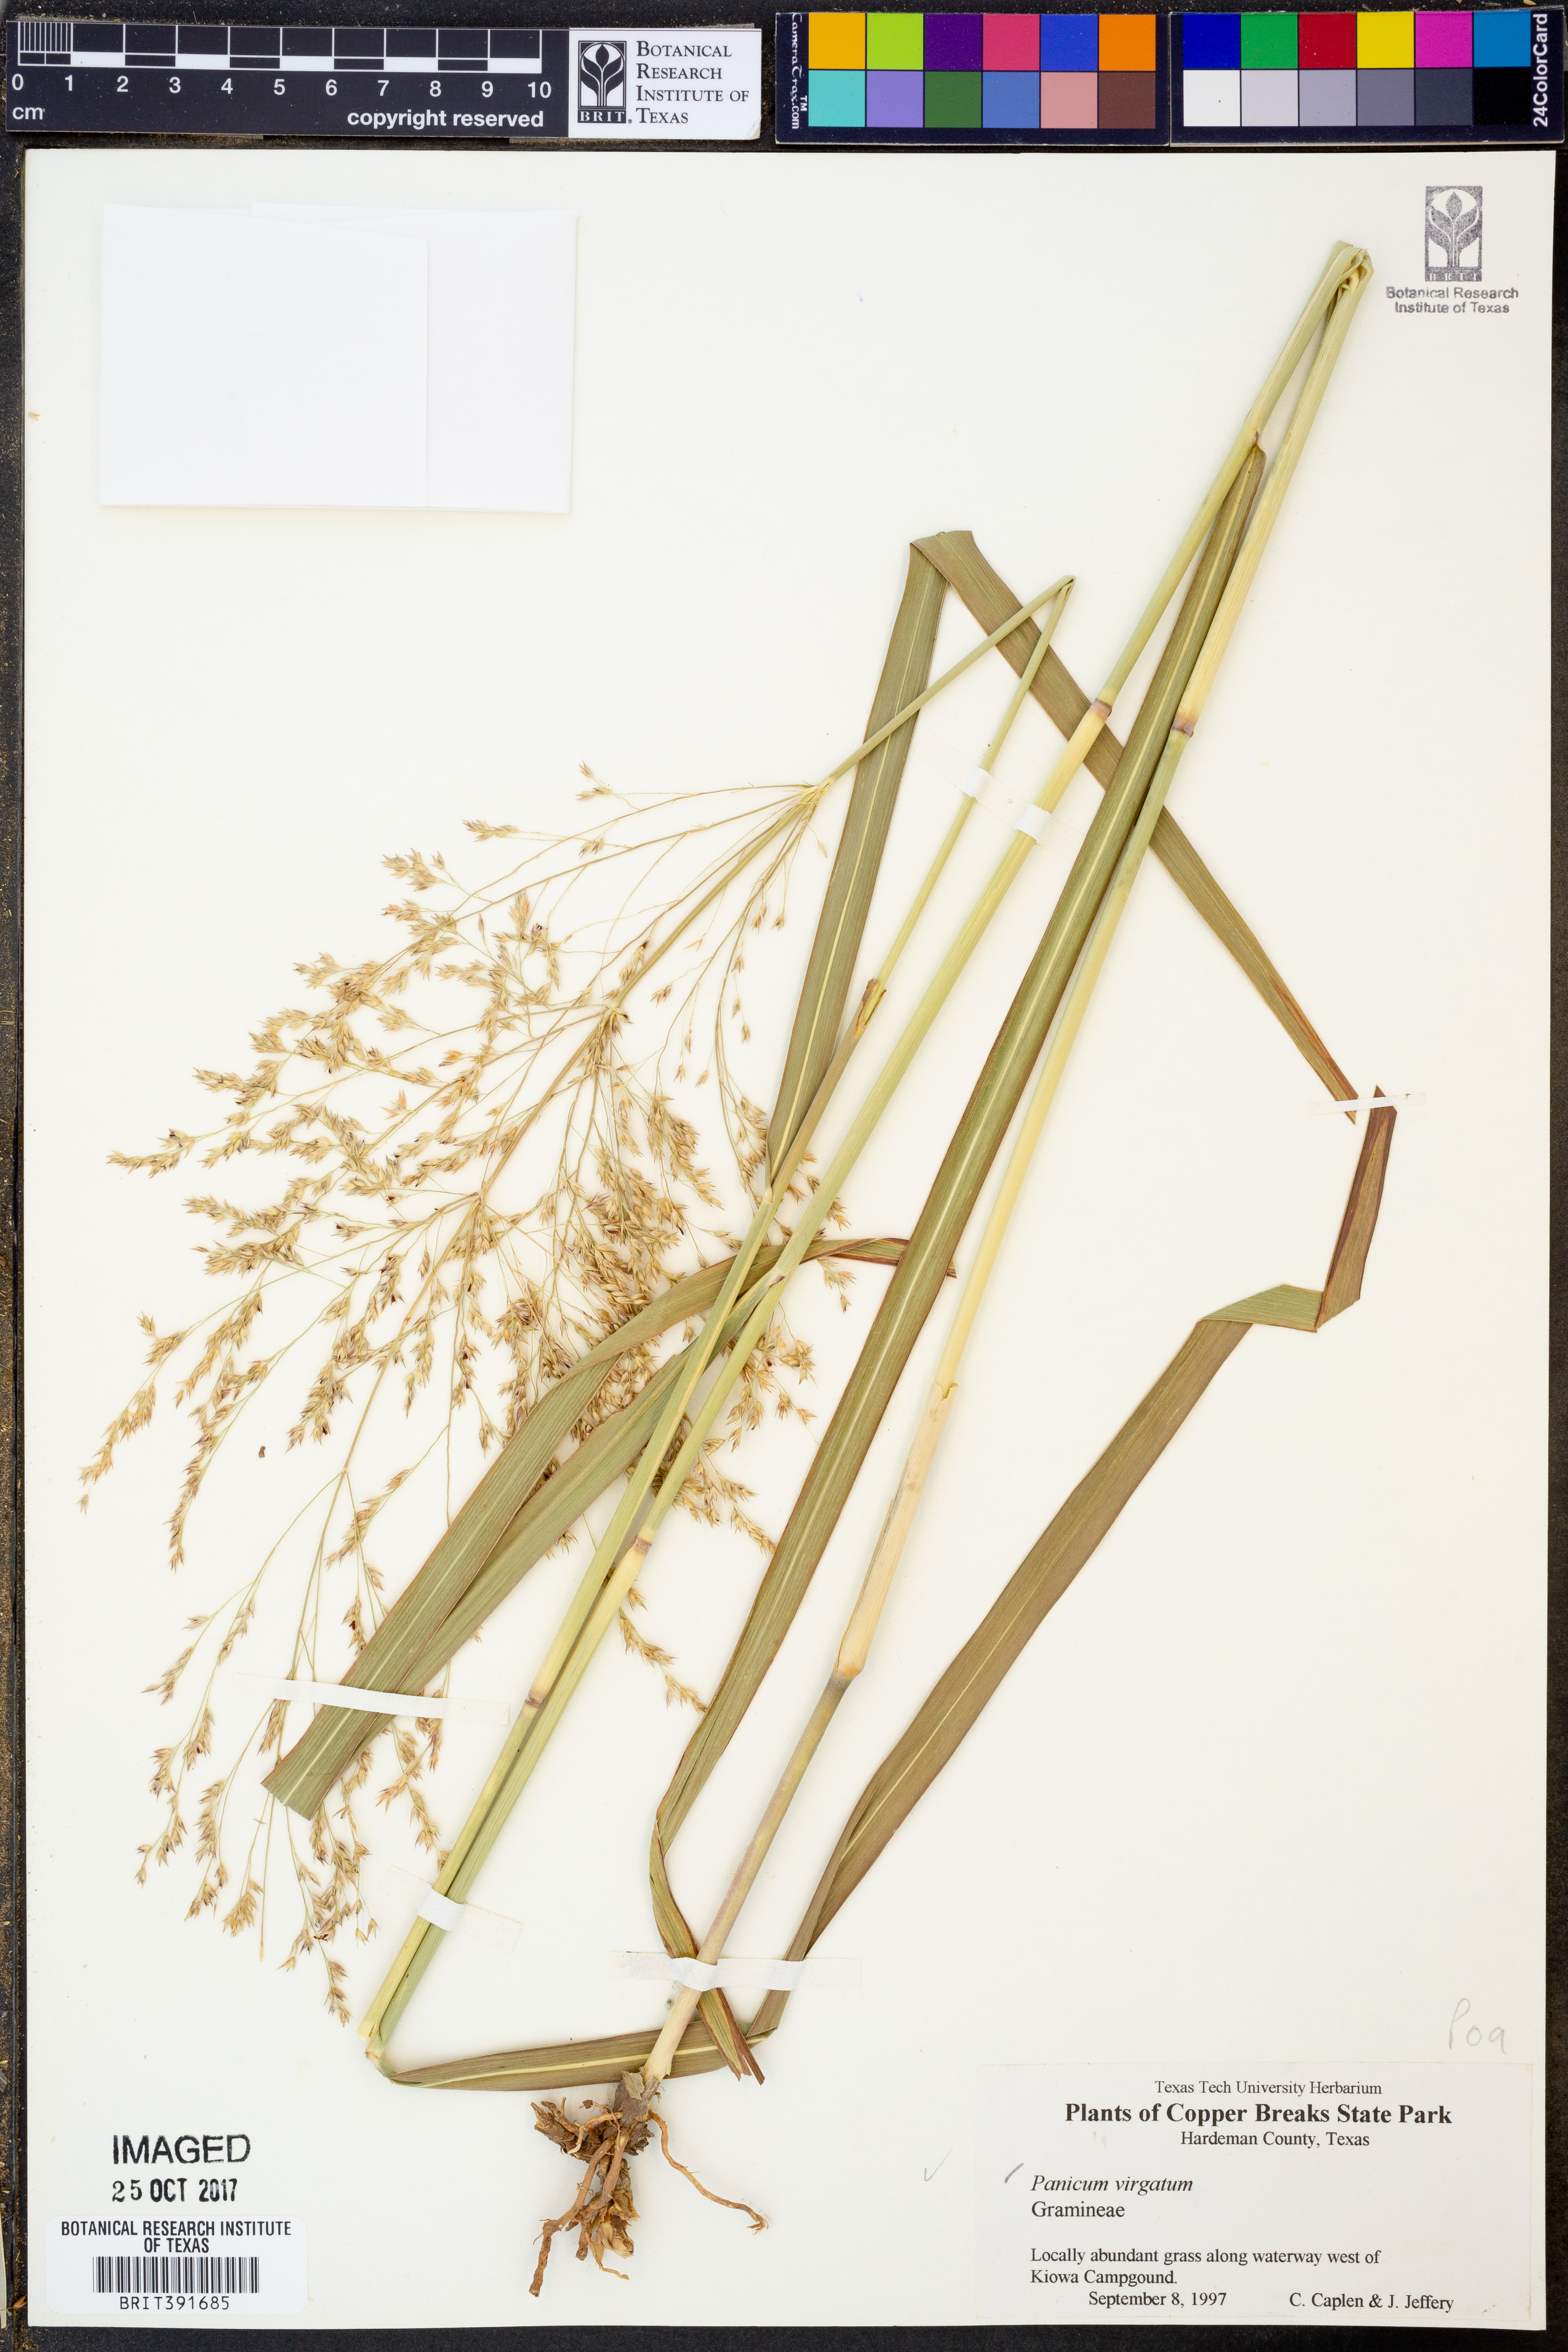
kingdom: Plantae
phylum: Tracheophyta
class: Liliopsida
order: Poales
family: Poaceae
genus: Panicum
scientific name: Panicum virgatum
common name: Switchgrass
